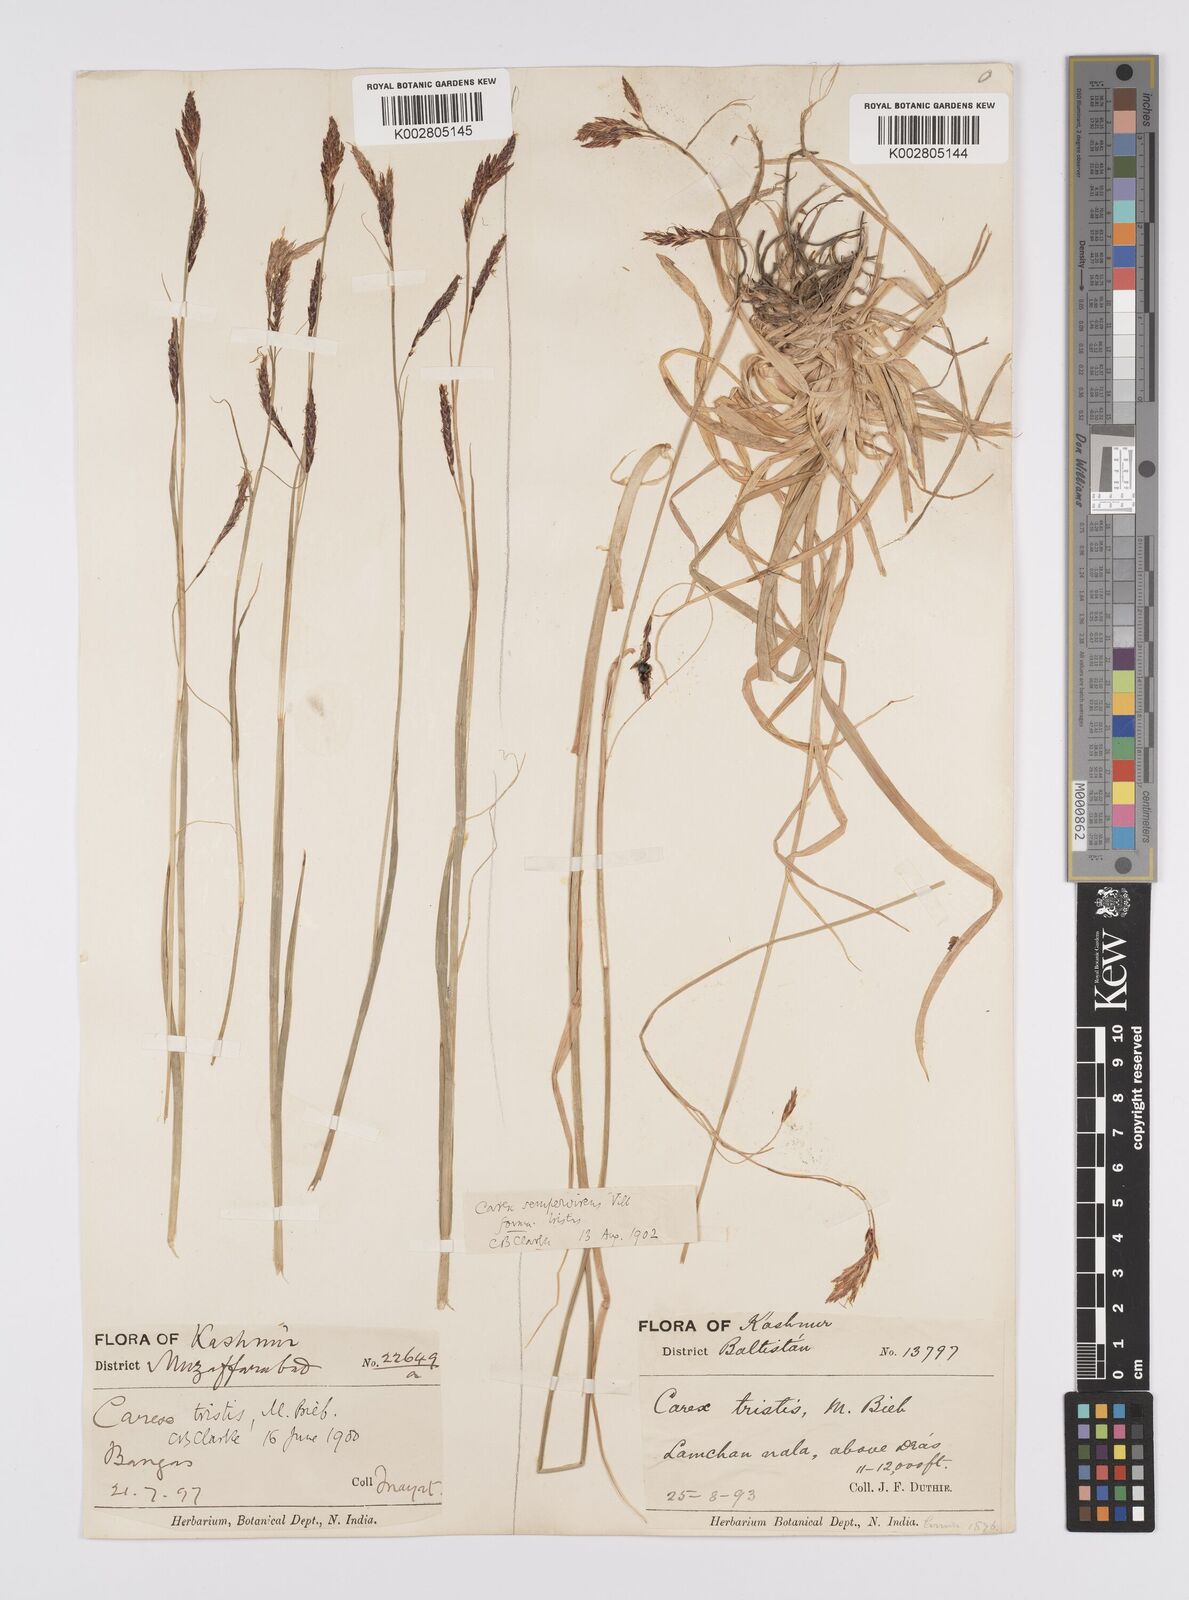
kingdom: Plantae
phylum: Tracheophyta
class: Liliopsida
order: Poales
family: Cyperaceae
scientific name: Cyperaceae
